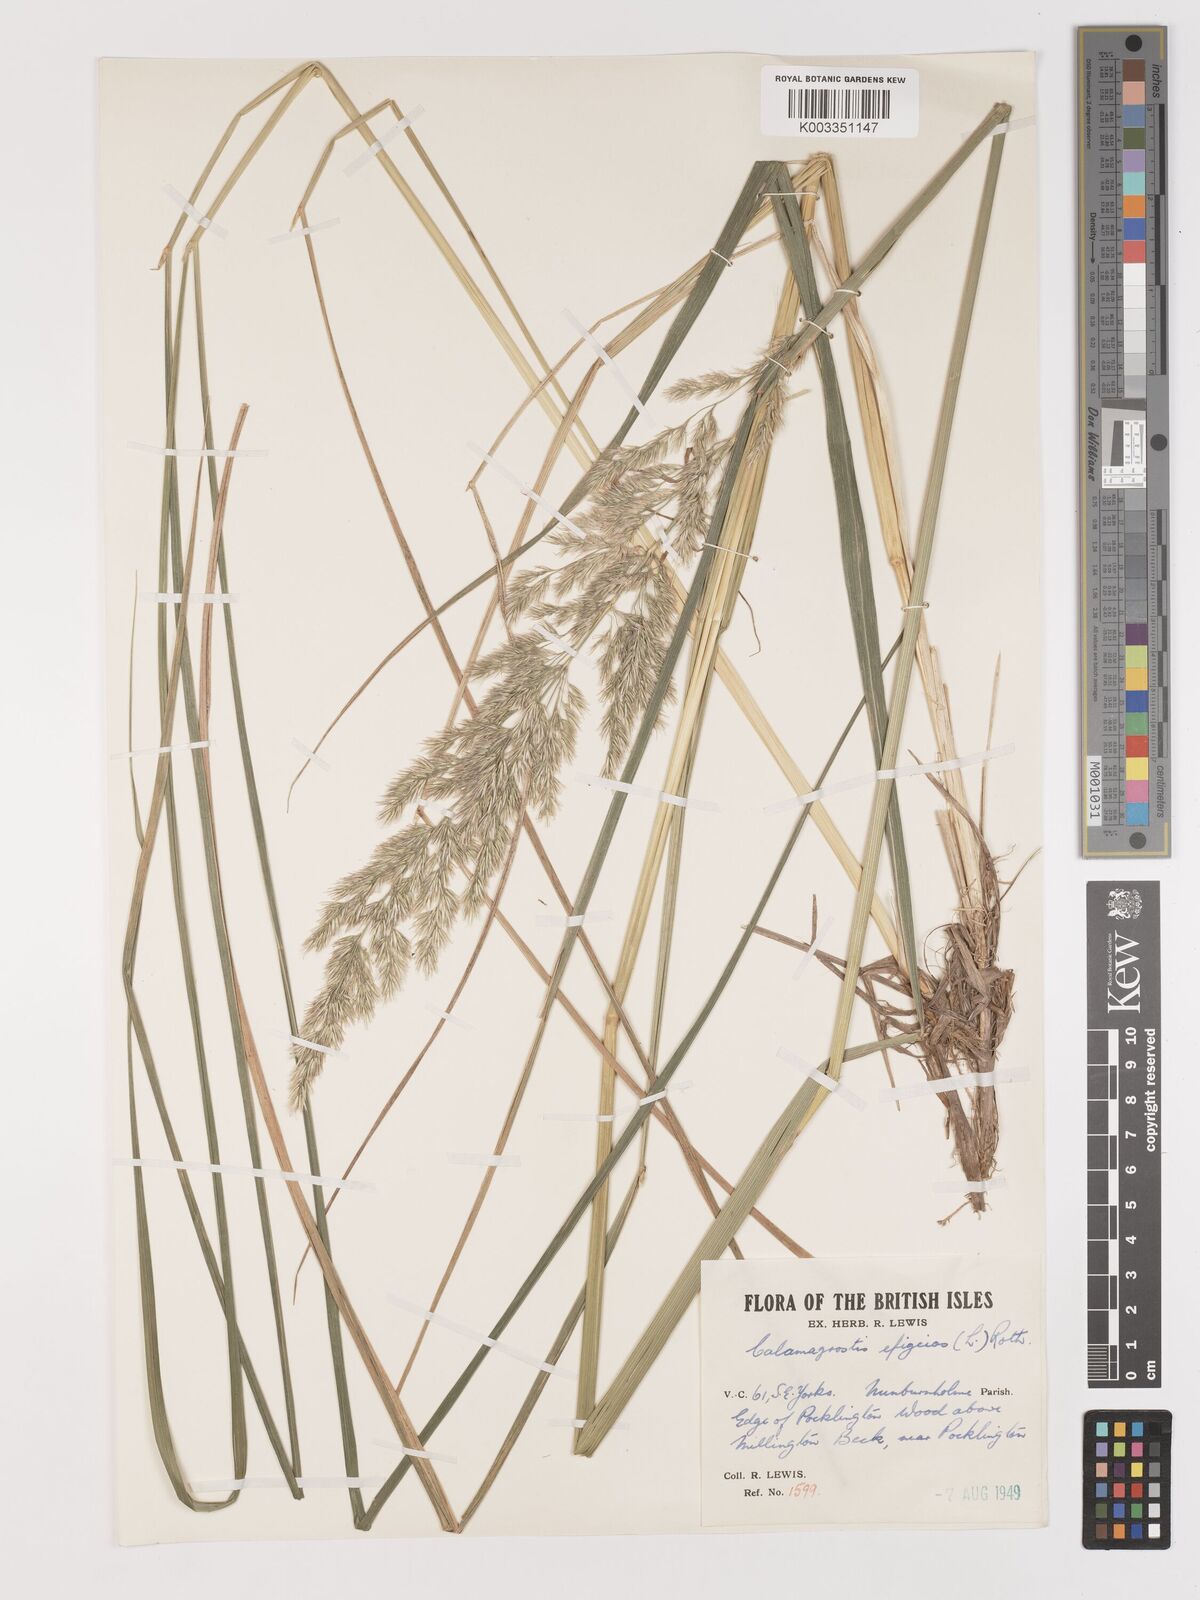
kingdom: Plantae
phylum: Tracheophyta
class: Liliopsida
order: Poales
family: Poaceae
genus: Calamagrostis
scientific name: Calamagrostis
